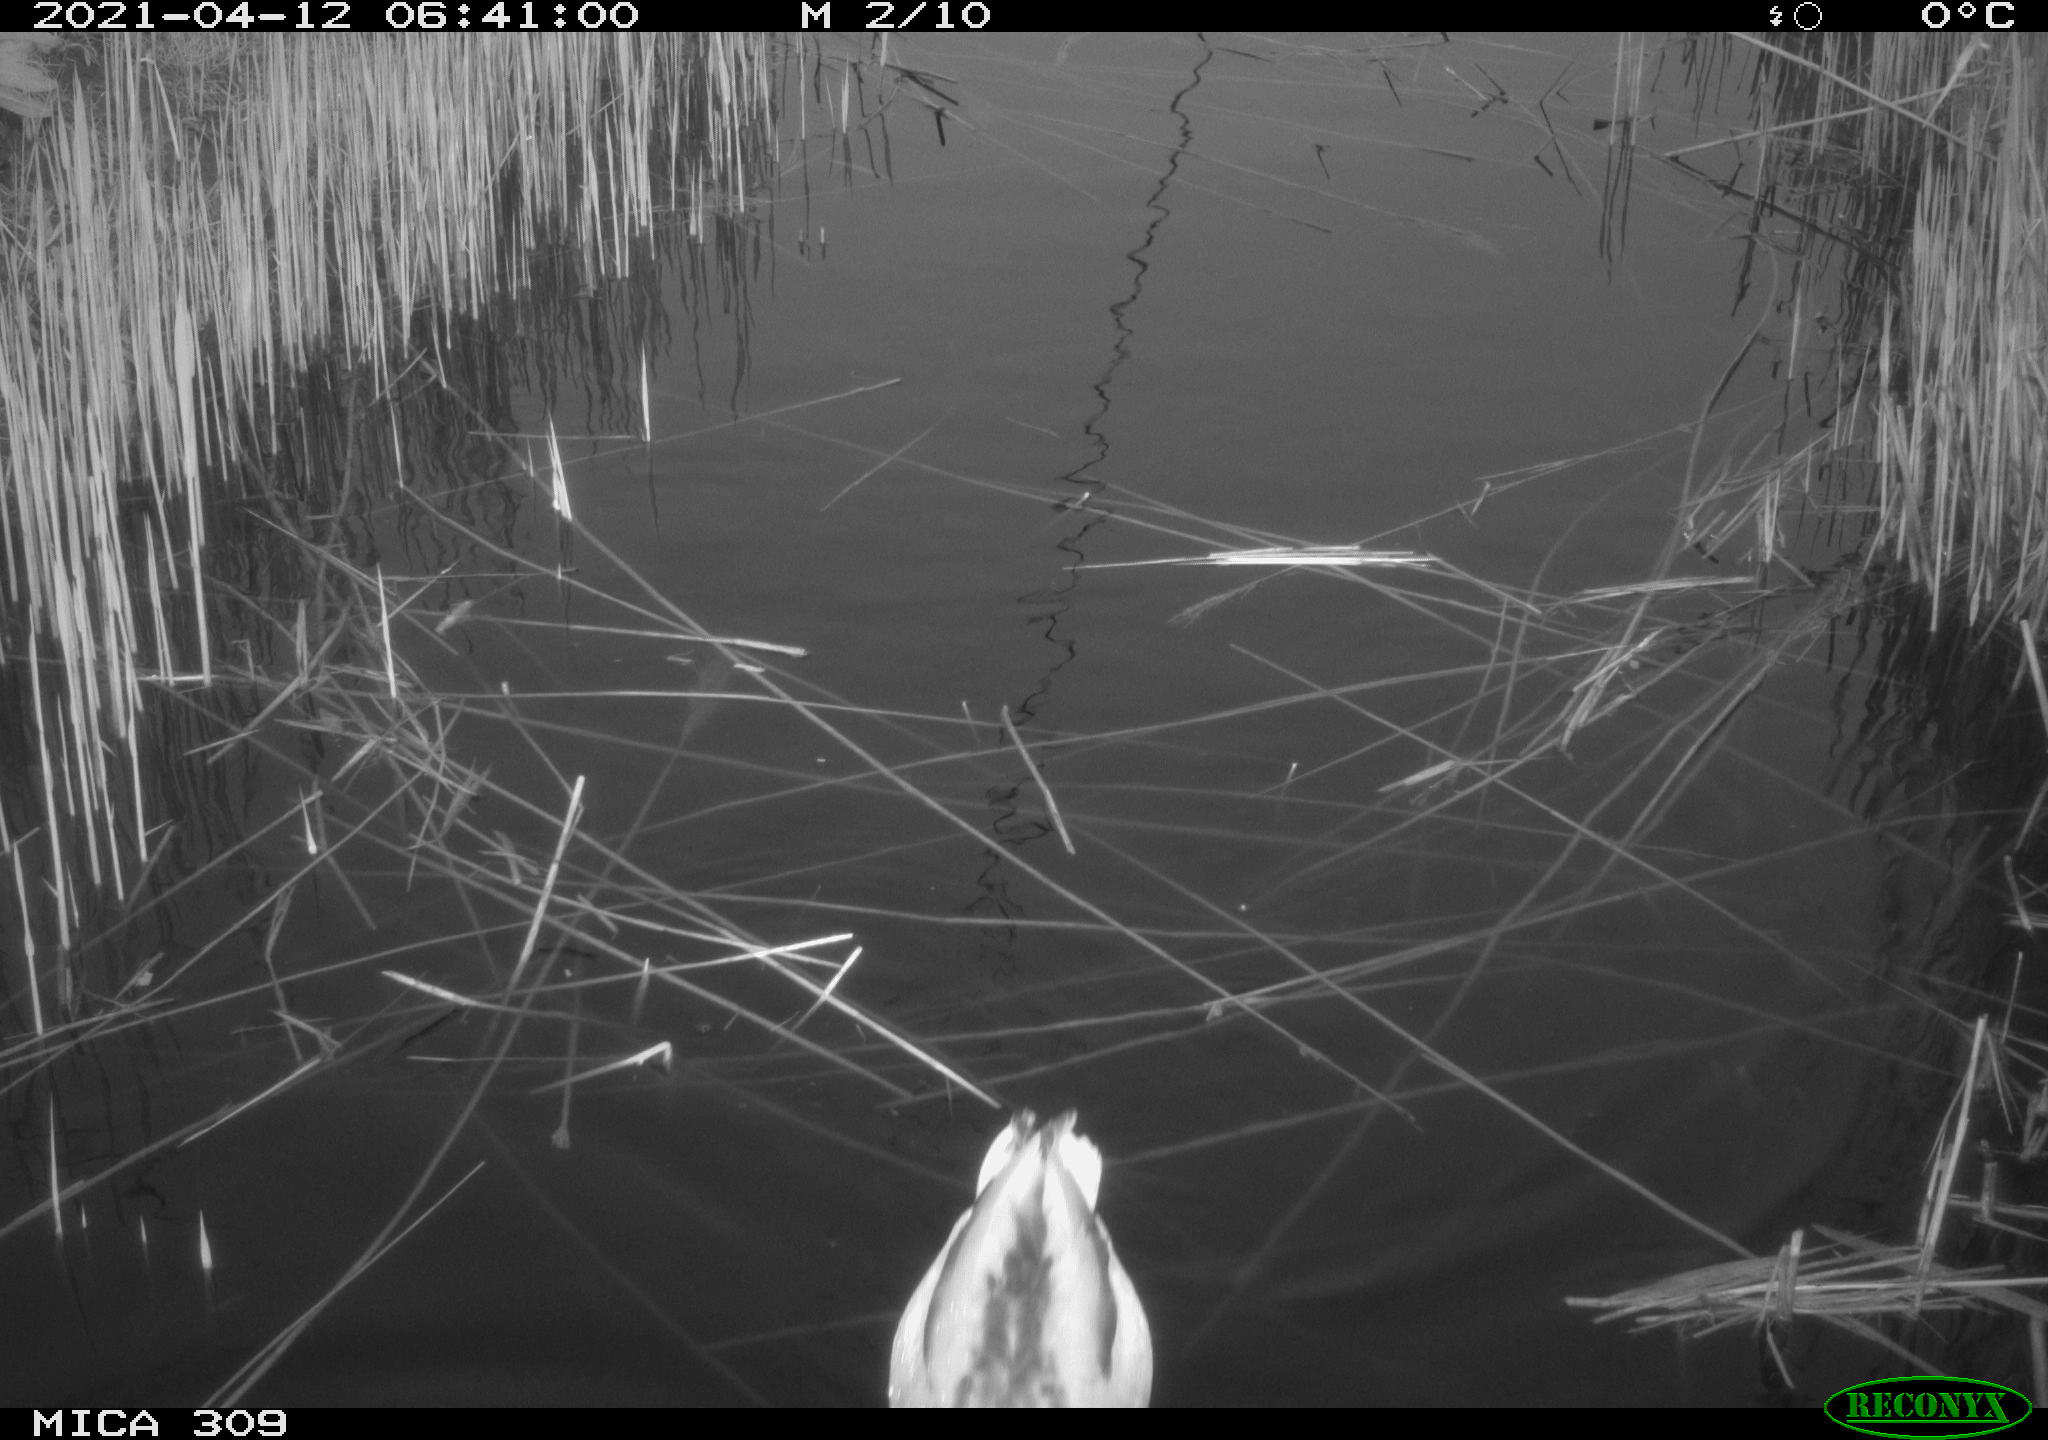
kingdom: Animalia
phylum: Chordata
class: Aves
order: Anseriformes
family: Anatidae
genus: Anas
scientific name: Anas platyrhynchos
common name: Mallard
